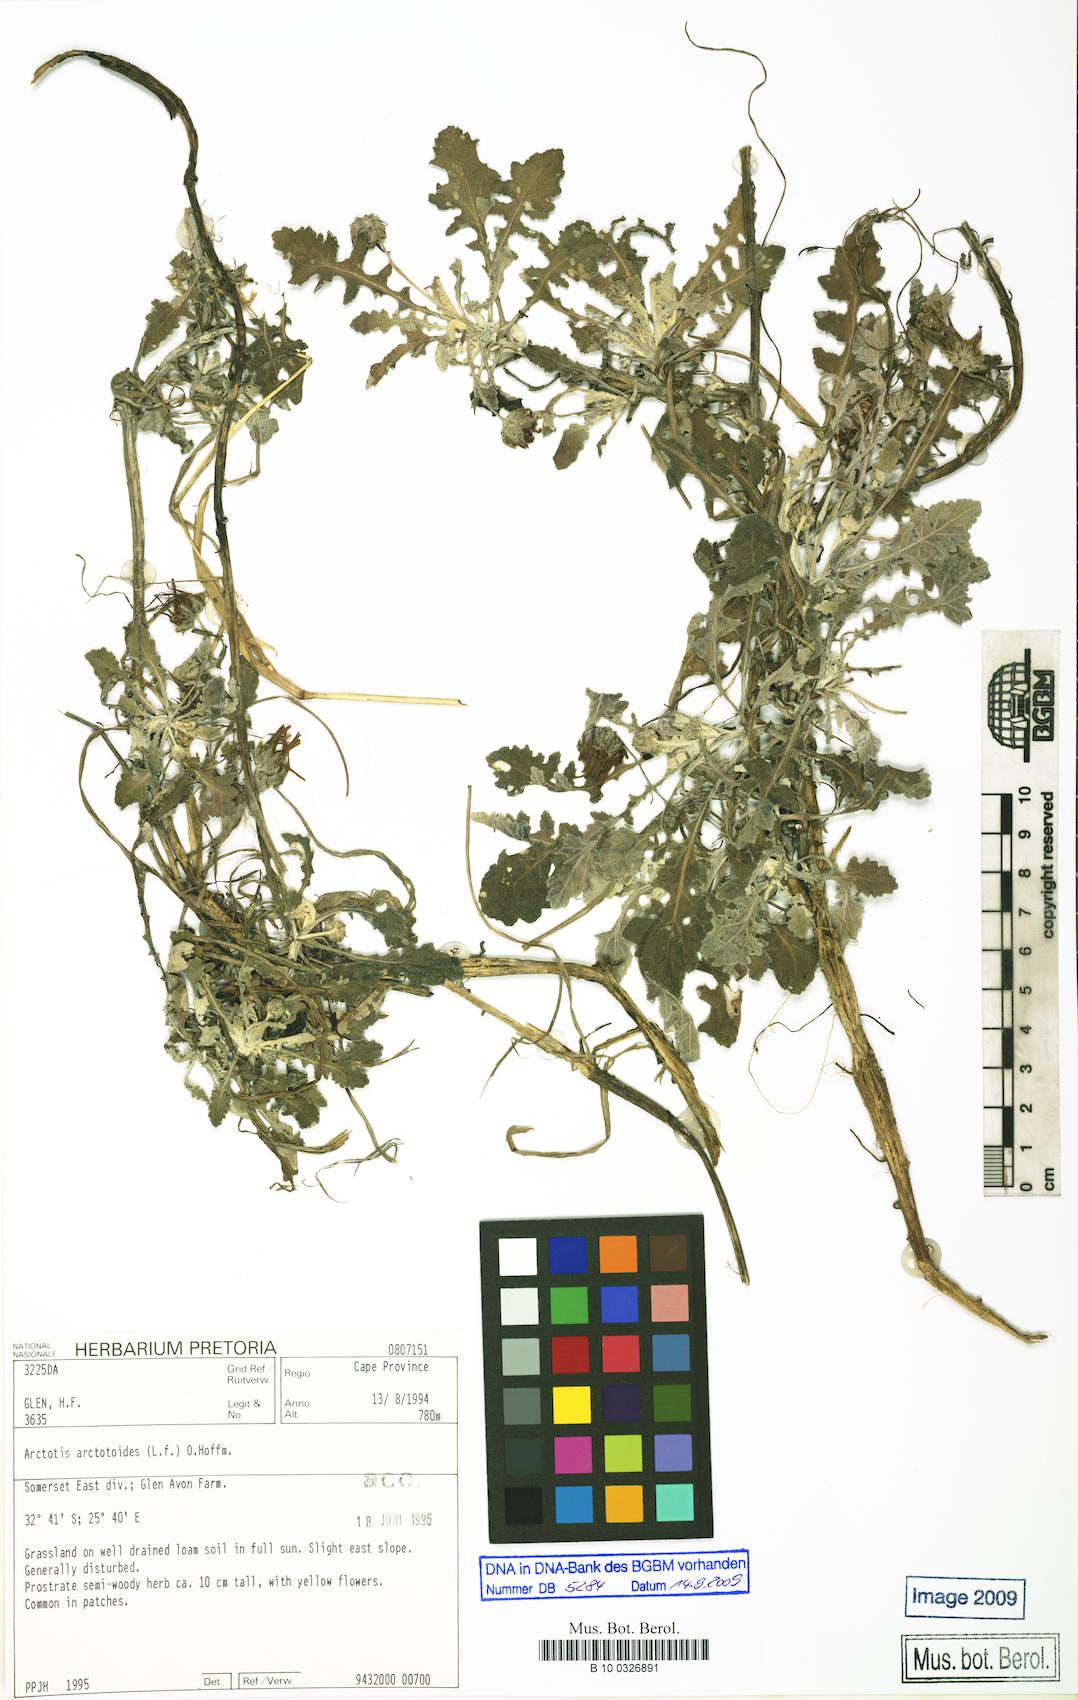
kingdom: Plantae
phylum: Tracheophyta
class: Magnoliopsida
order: Asterales
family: Asteraceae
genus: Arctotis
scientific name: Arctotis arctotoides
